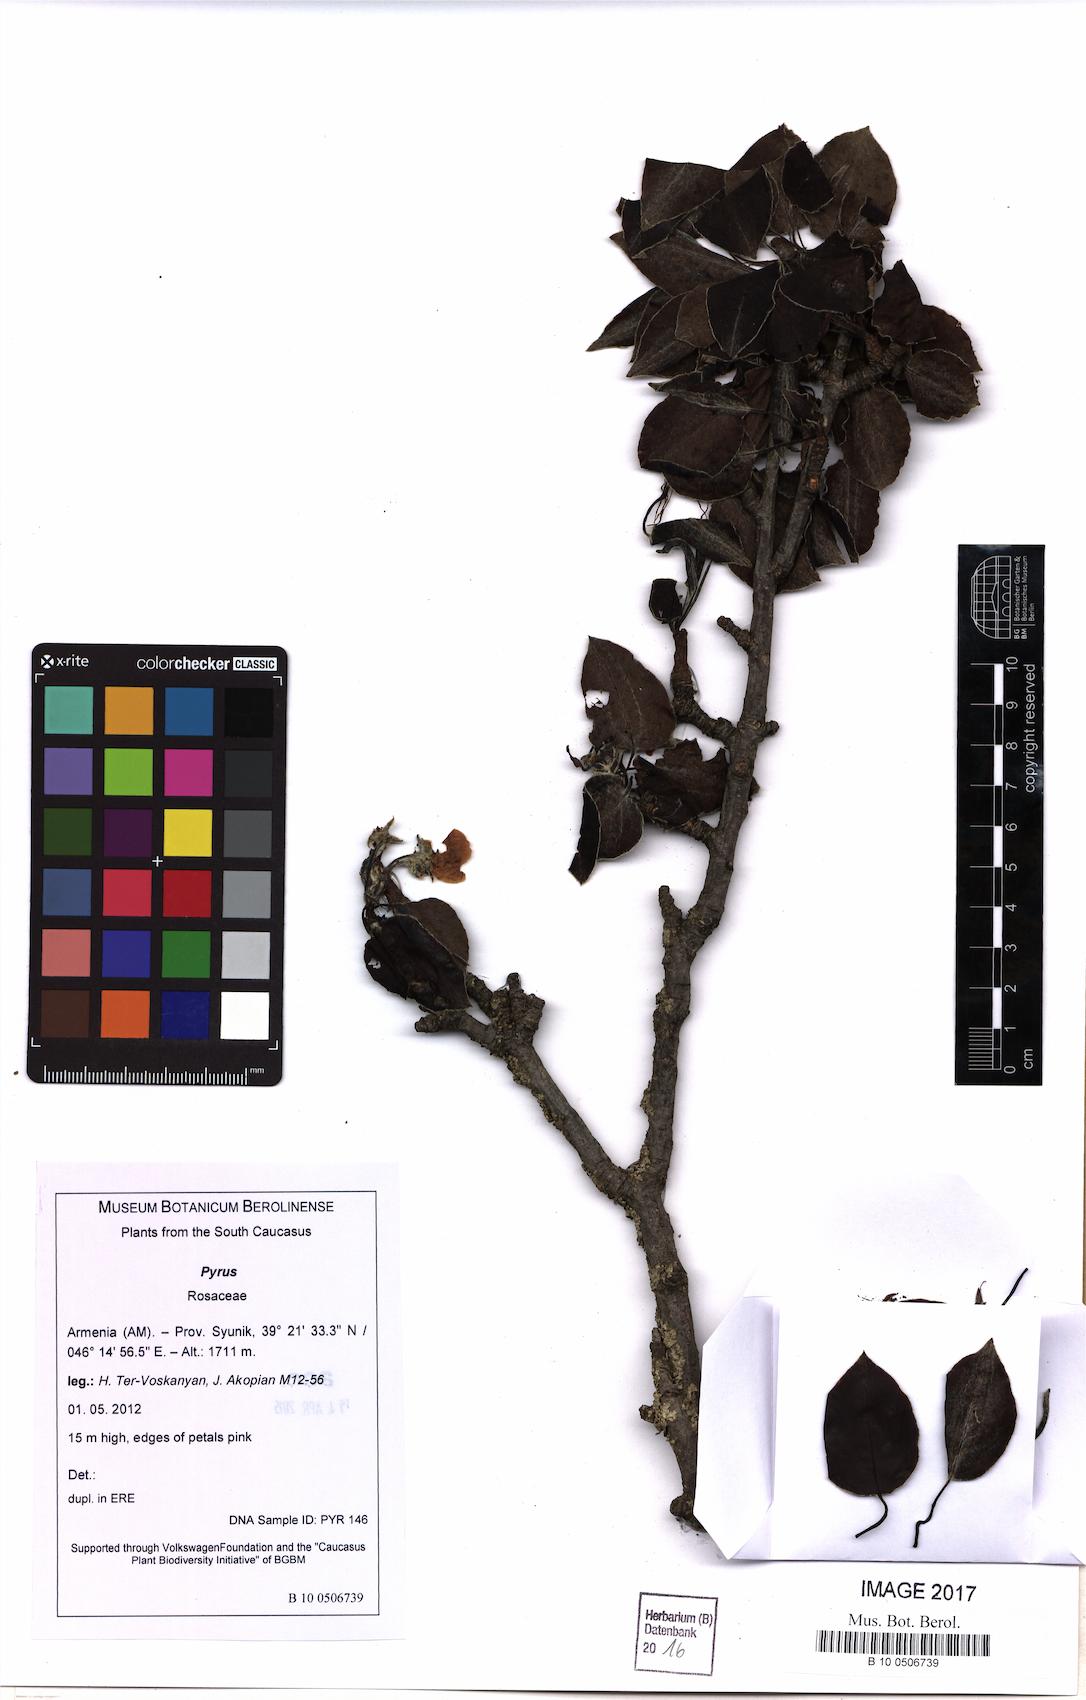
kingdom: Plantae
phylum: Tracheophyta
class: Magnoliopsida
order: Rosales
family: Rosaceae
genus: Pyrus
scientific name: Pyrus
